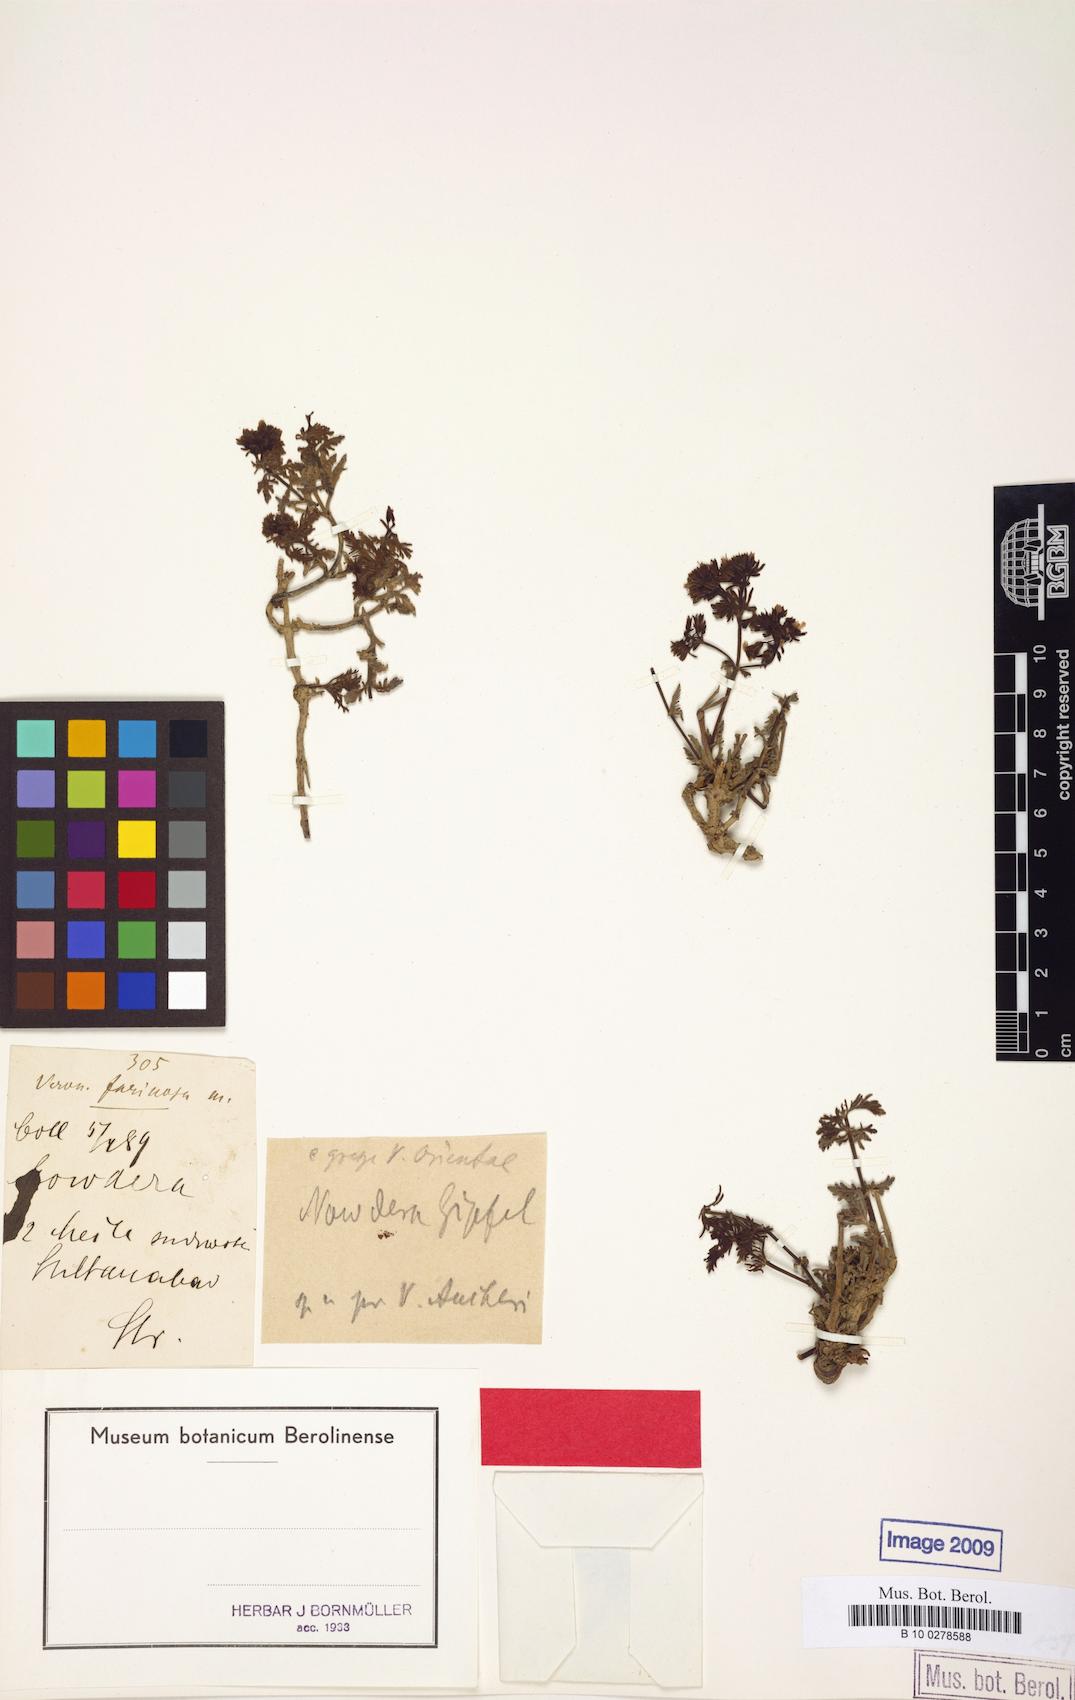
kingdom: Plantae
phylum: Tracheophyta
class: Magnoliopsida
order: Lamiales
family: Plantaginaceae
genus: Veronica
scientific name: Veronica farinosa
